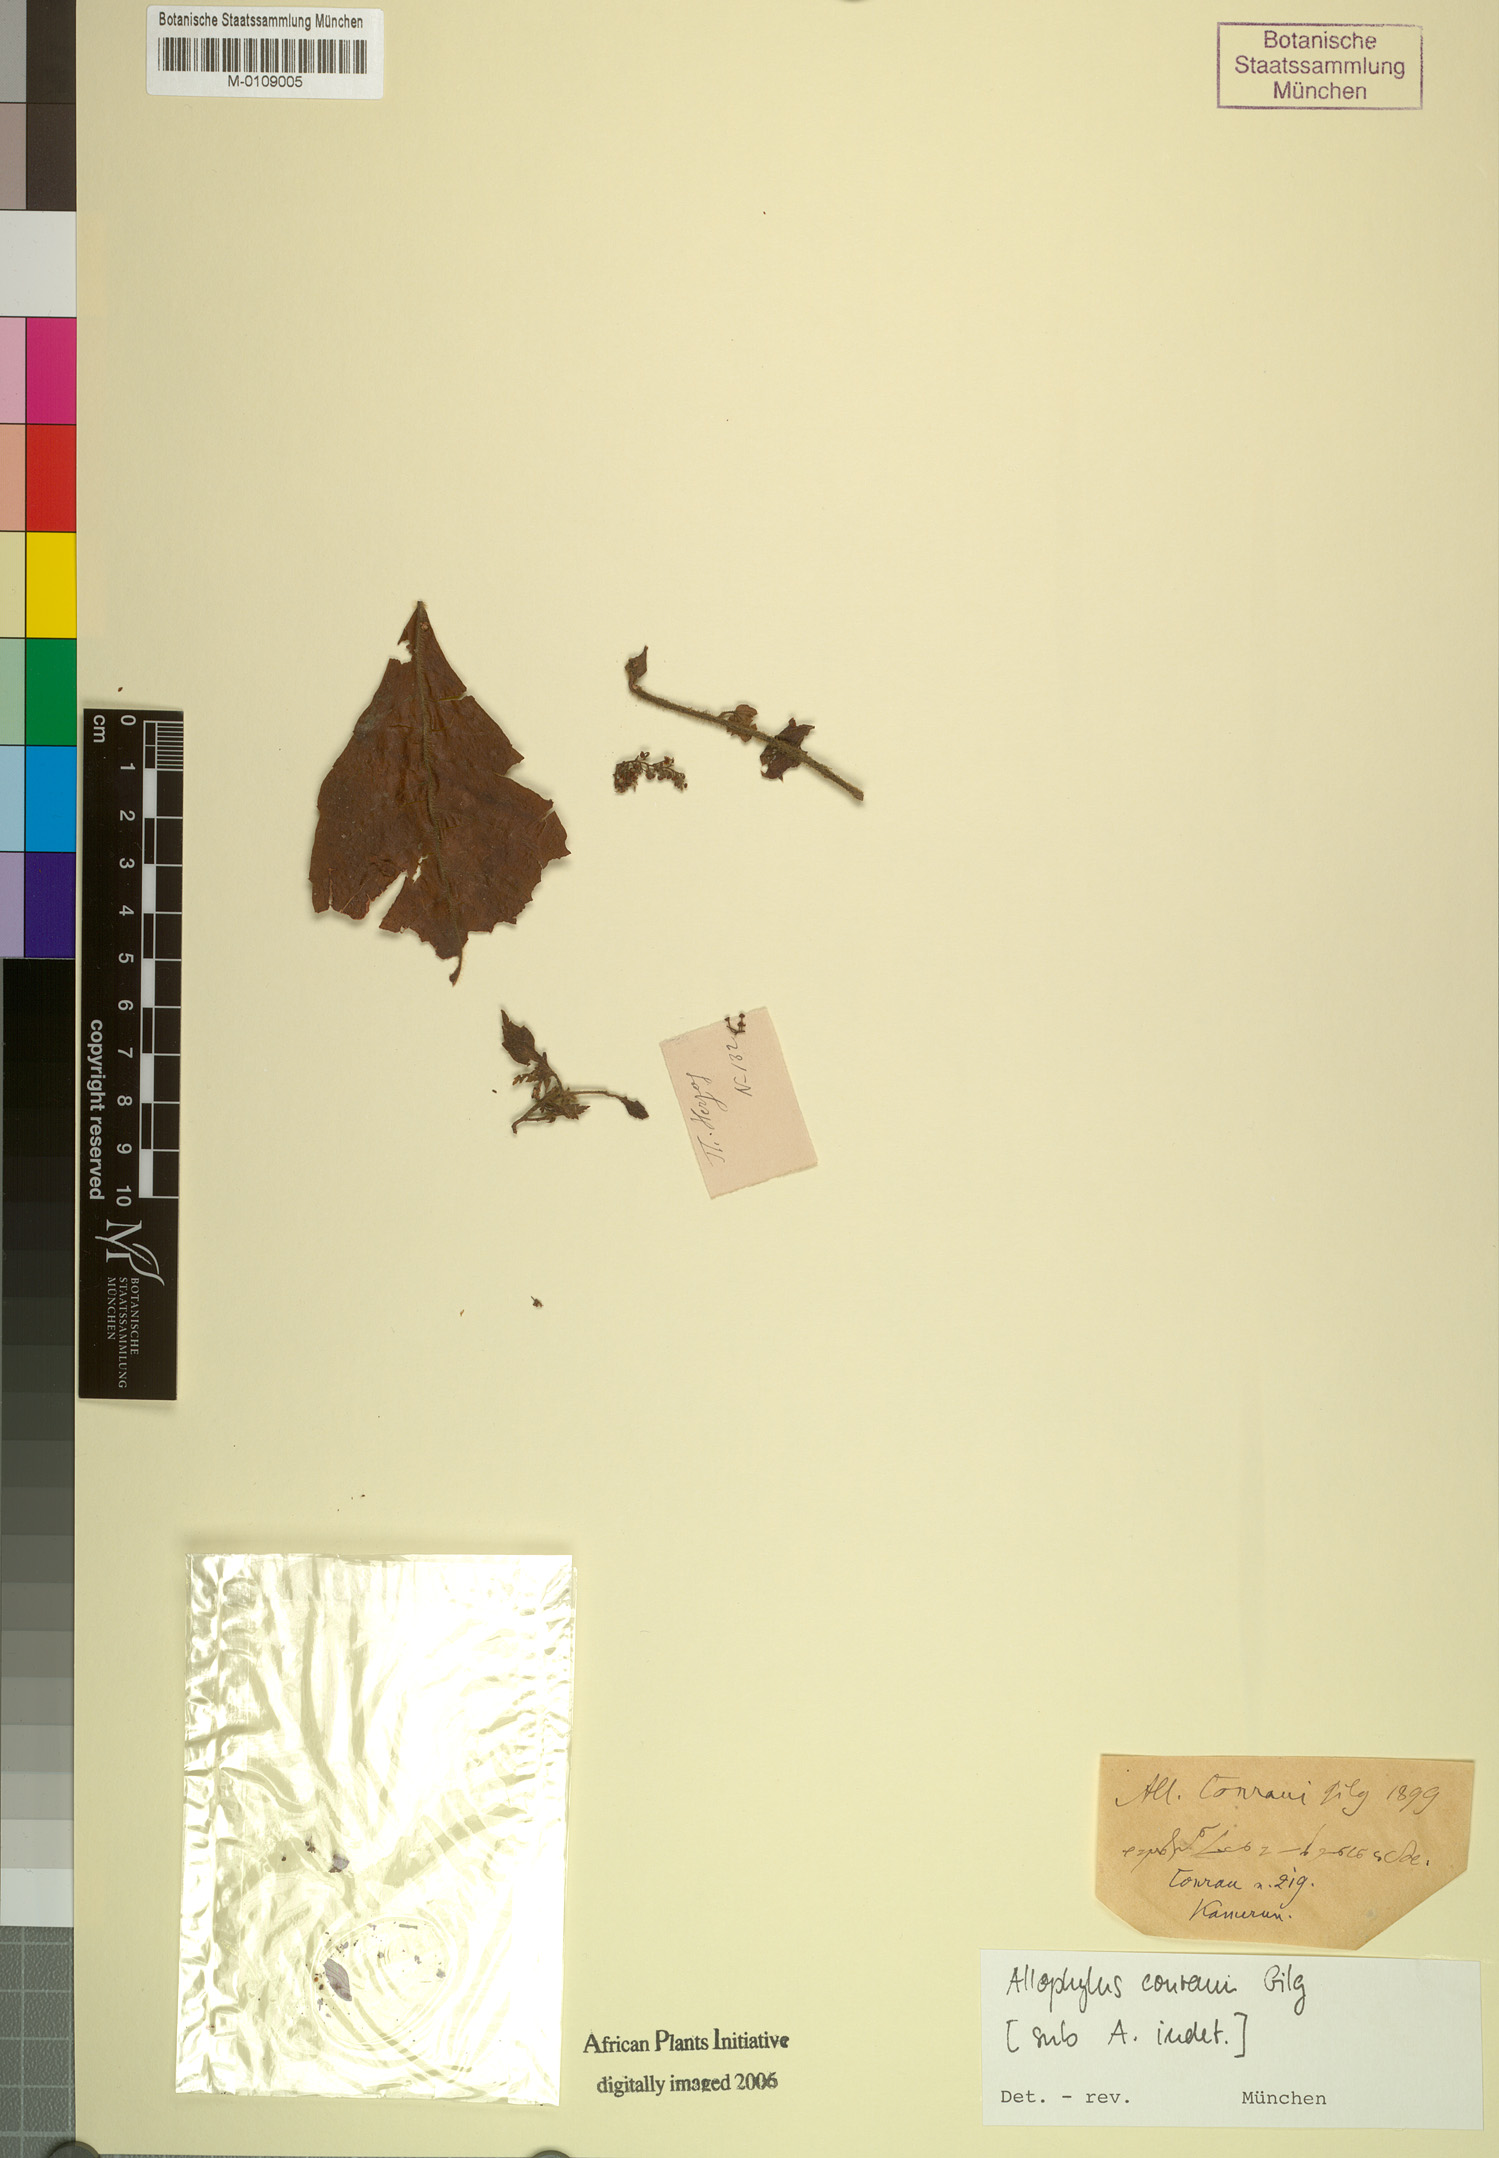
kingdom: Plantae
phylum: Tracheophyta
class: Magnoliopsida
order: Sapindales
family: Sapindaceae
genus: Allophylus
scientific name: Allophylus conraui
